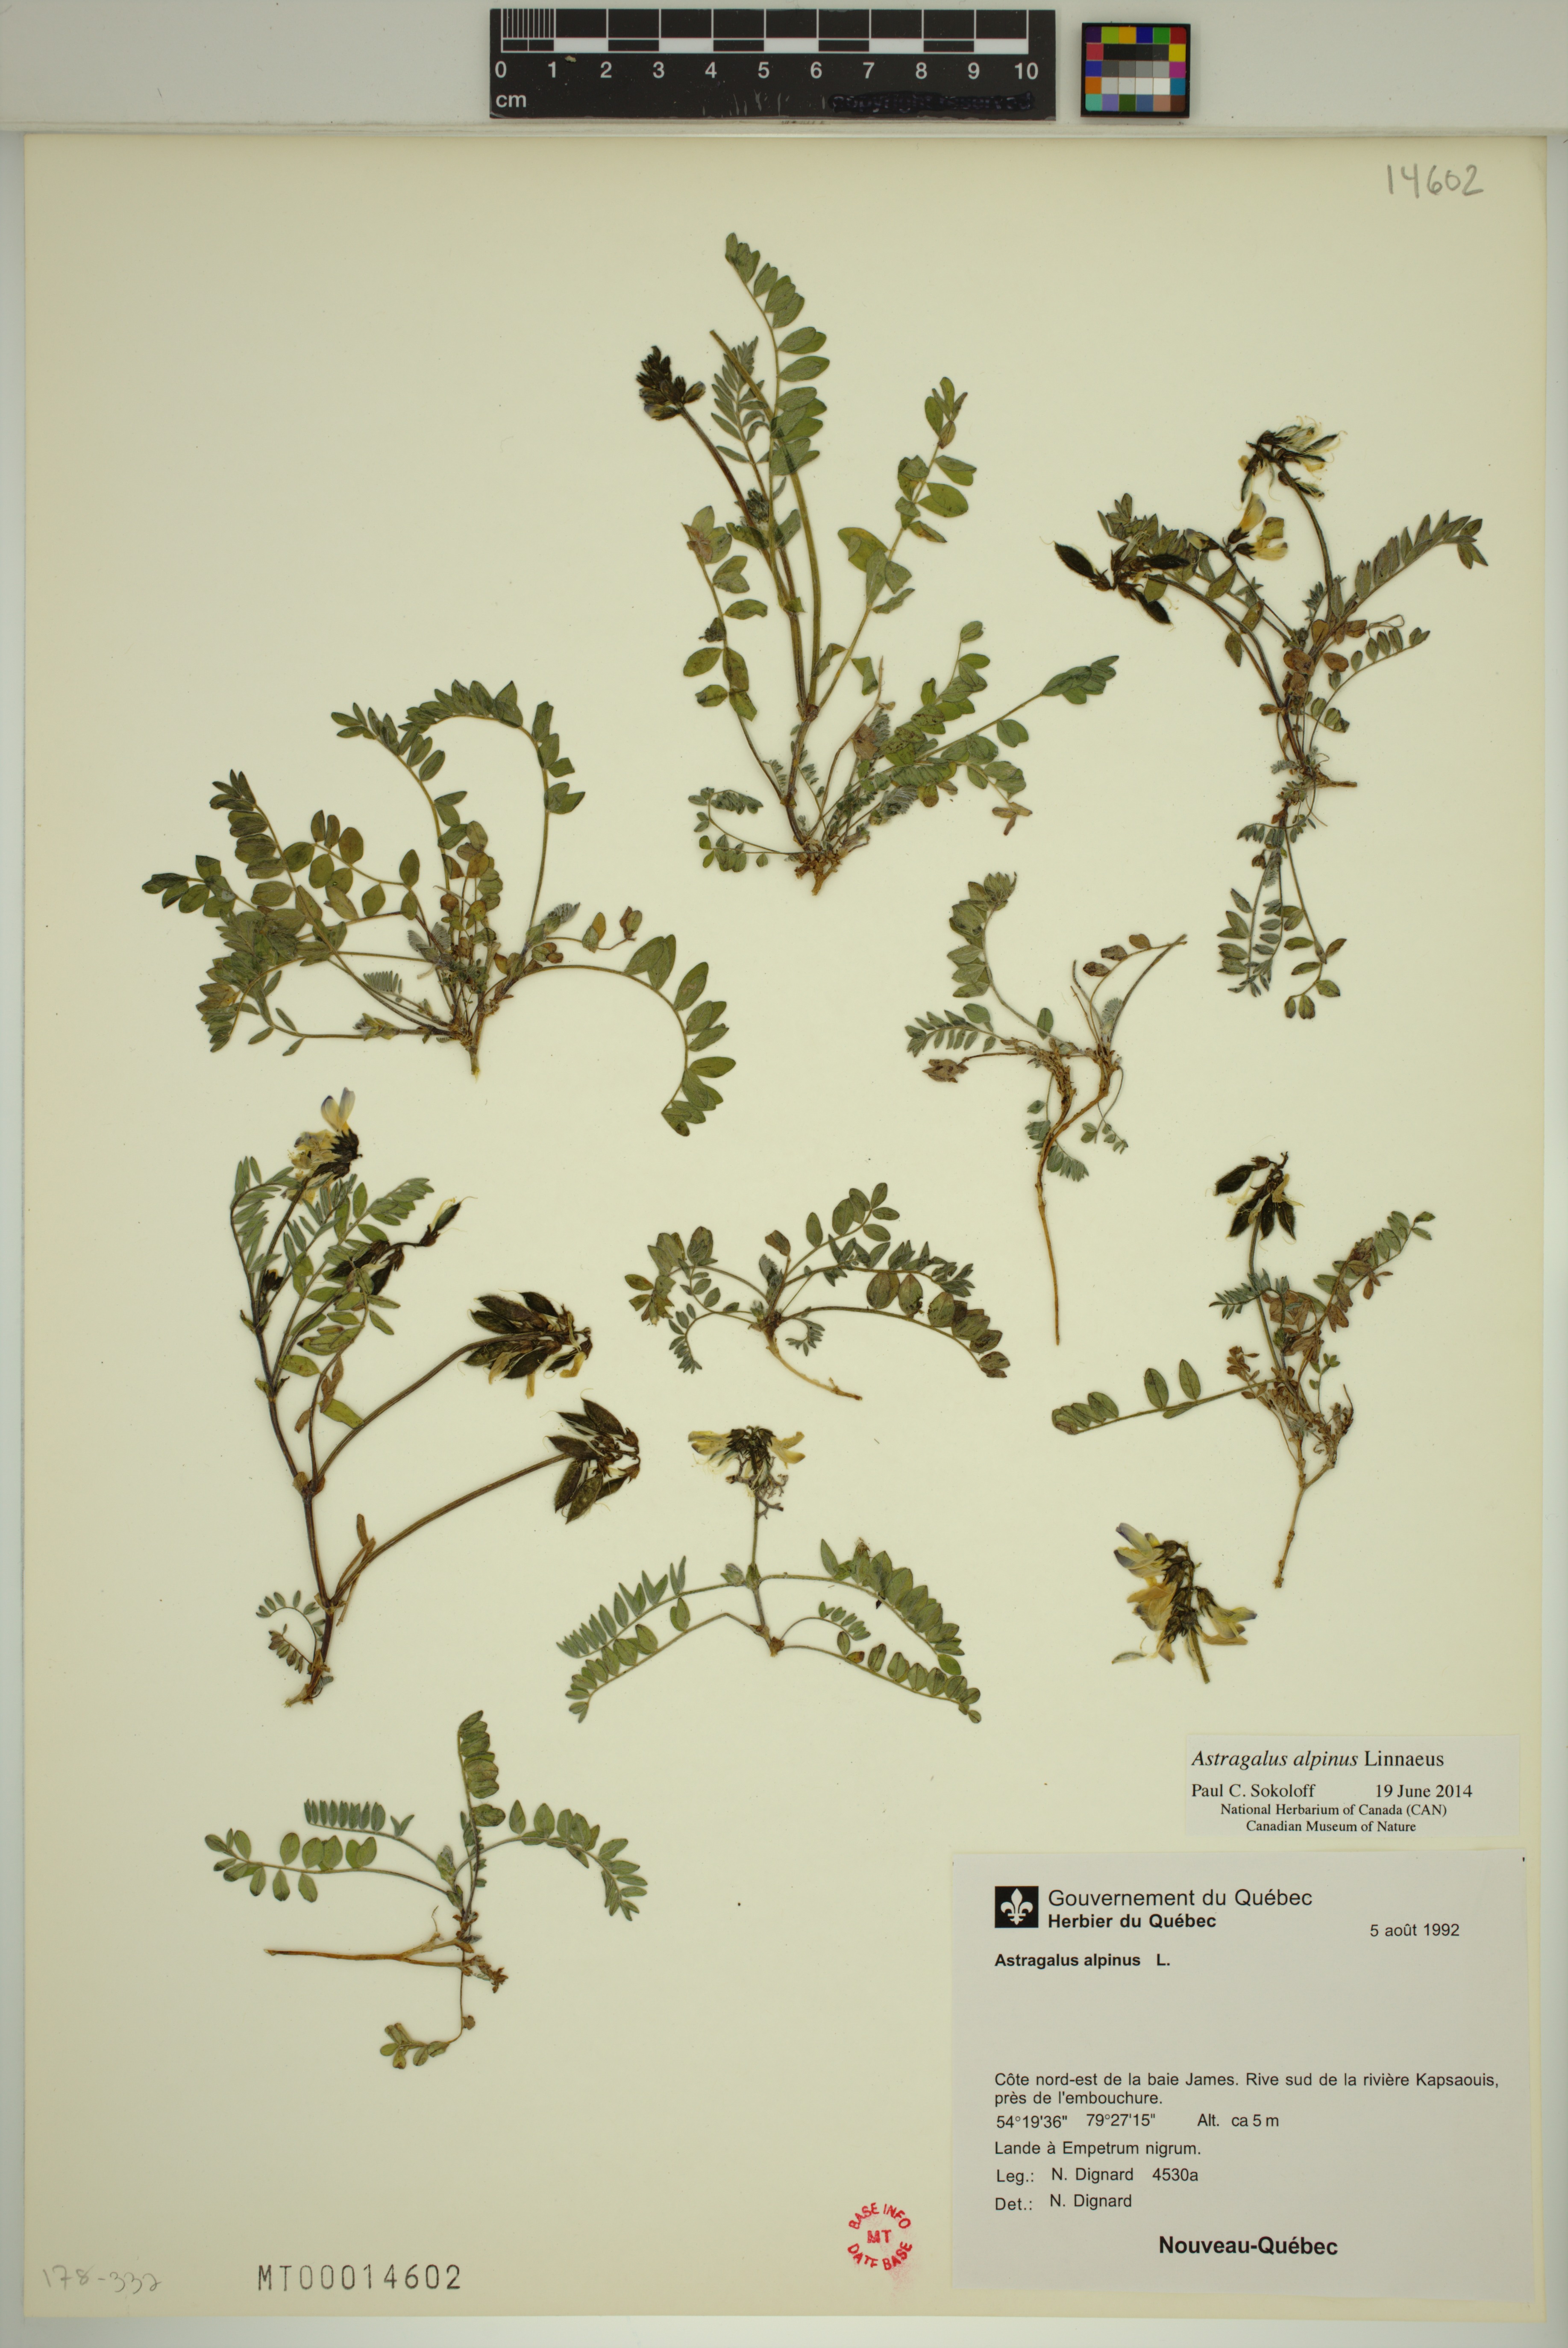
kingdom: Plantae
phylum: Tracheophyta
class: Magnoliopsida
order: Fabales
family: Fabaceae
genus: Astragalus
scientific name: Astragalus alpinus
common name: Alpine milk-vetch
